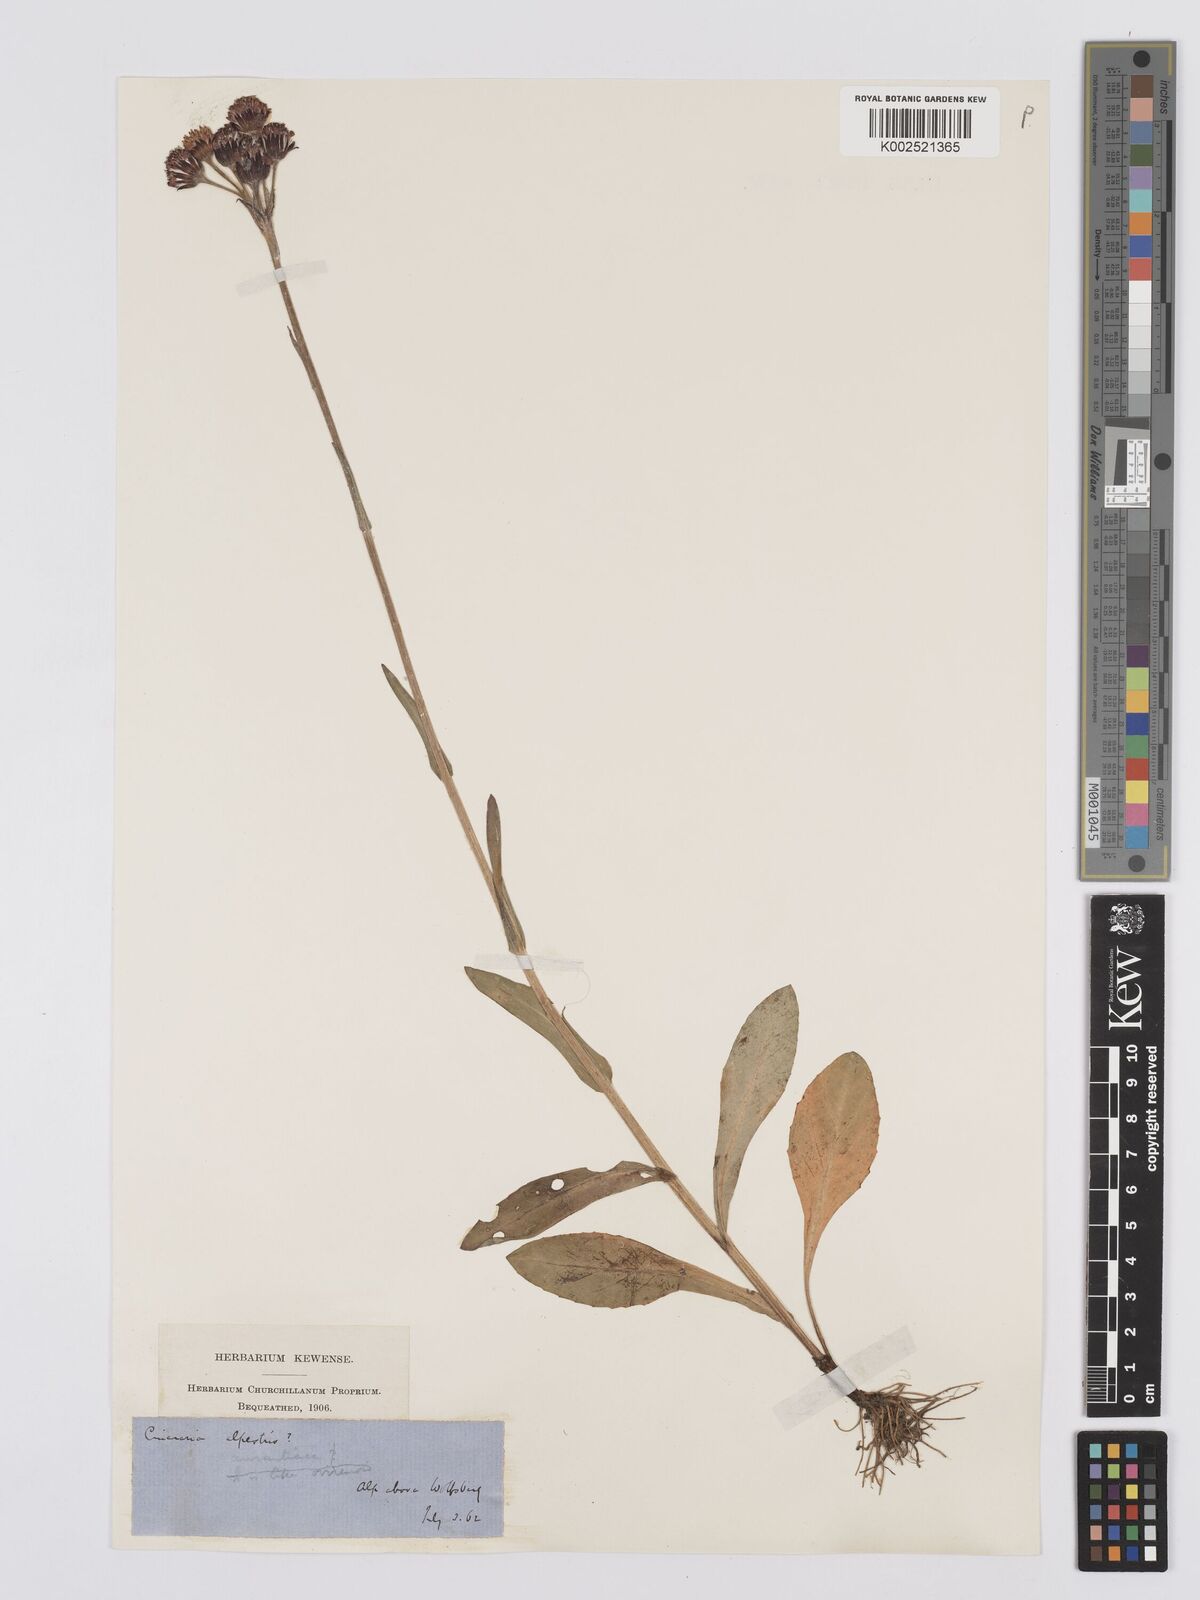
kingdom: Plantae
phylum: Tracheophyta
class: Magnoliopsida
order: Asterales
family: Asteraceae
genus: Tephroseris
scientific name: Tephroseris aurantiaca
